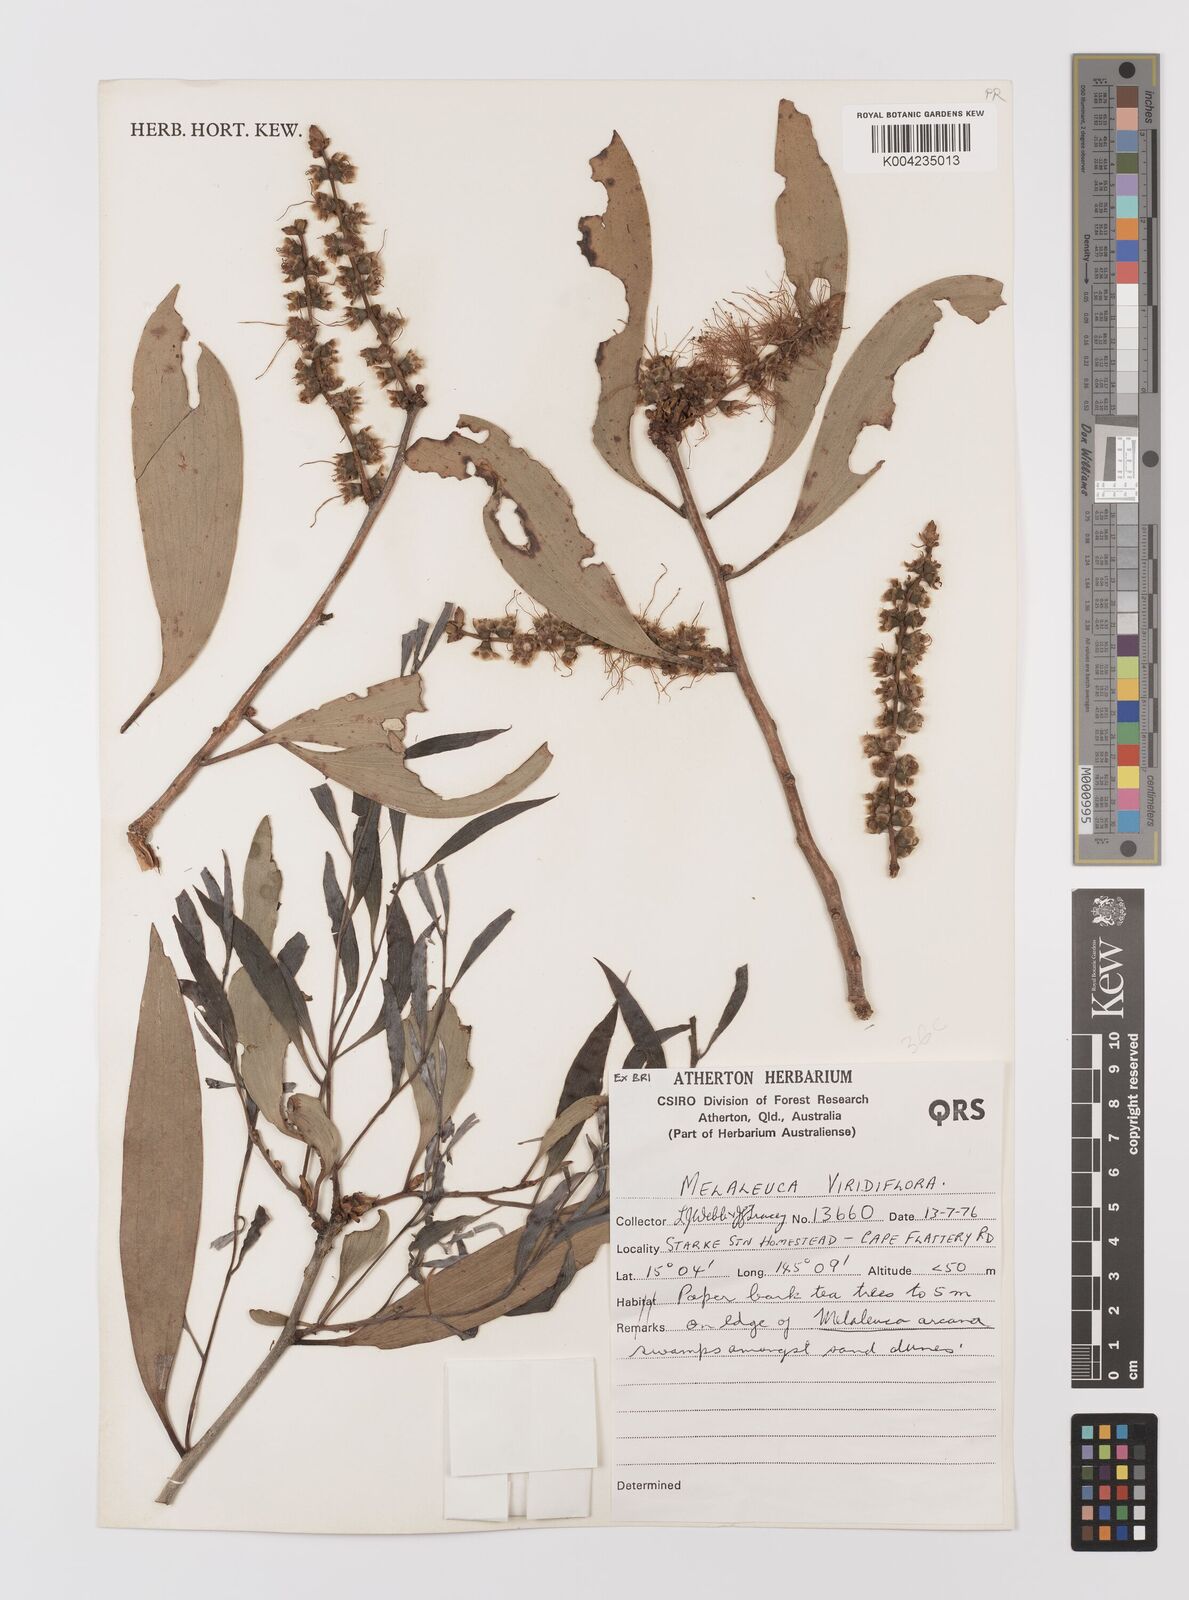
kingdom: Plantae
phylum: Tracheophyta
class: Magnoliopsida
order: Myrtales
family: Myrtaceae
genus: Melaleuca
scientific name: Melaleuca viridiflora
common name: Brown-leaved paperbark
